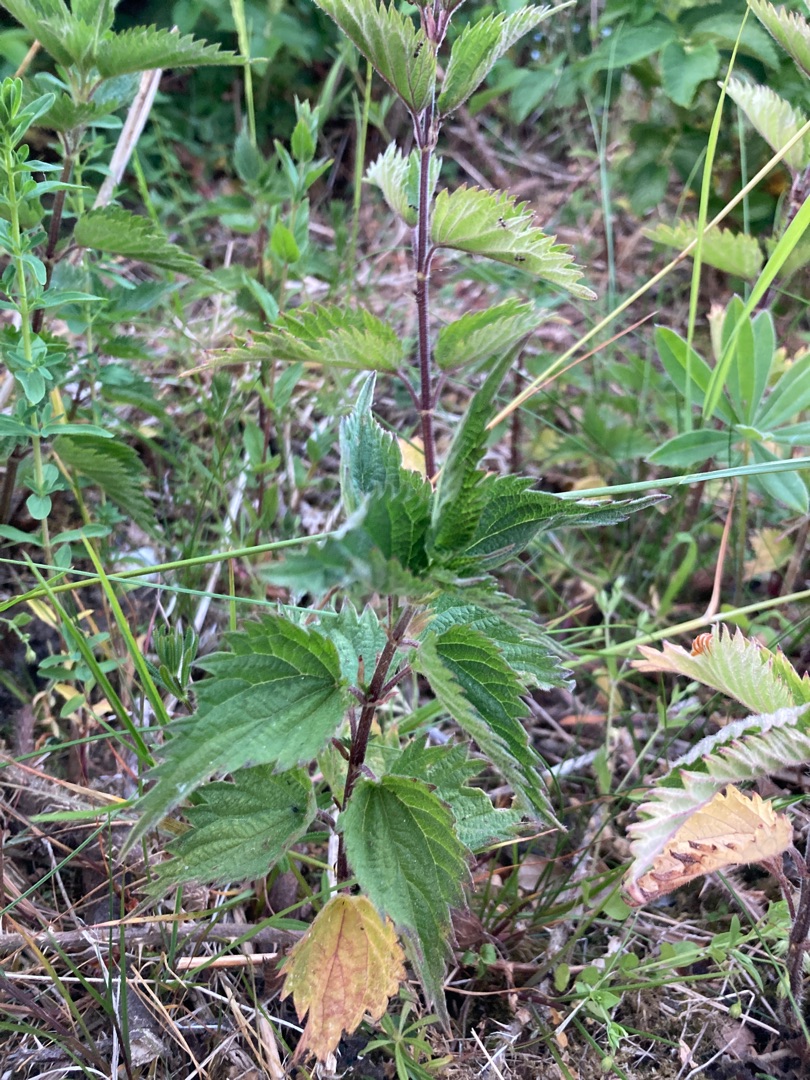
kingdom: Plantae
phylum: Tracheophyta
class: Magnoliopsida
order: Rosales
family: Urticaceae
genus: Urtica
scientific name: Urtica dioica
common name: Stor nælde
